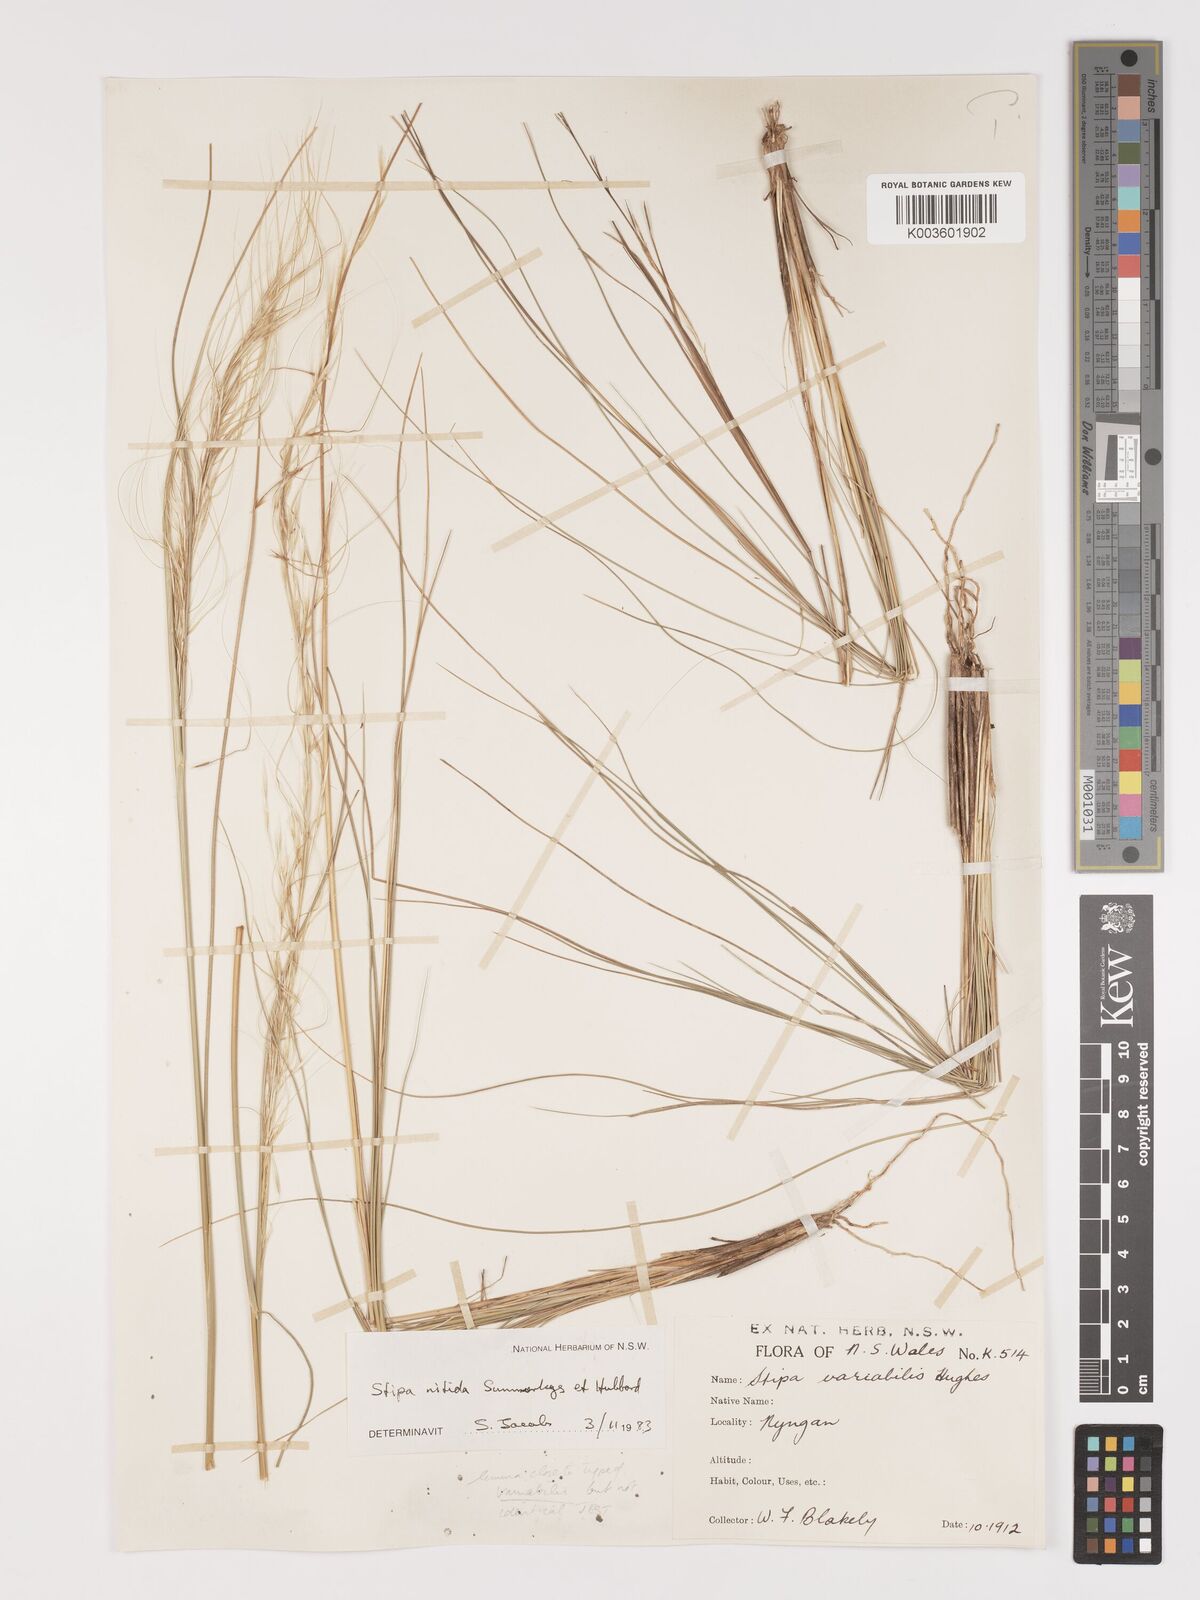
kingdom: Plantae
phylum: Tracheophyta
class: Liliopsida
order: Poales
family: Poaceae
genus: Austrostipa
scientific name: Austrostipa nitida
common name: Balcarra grass
